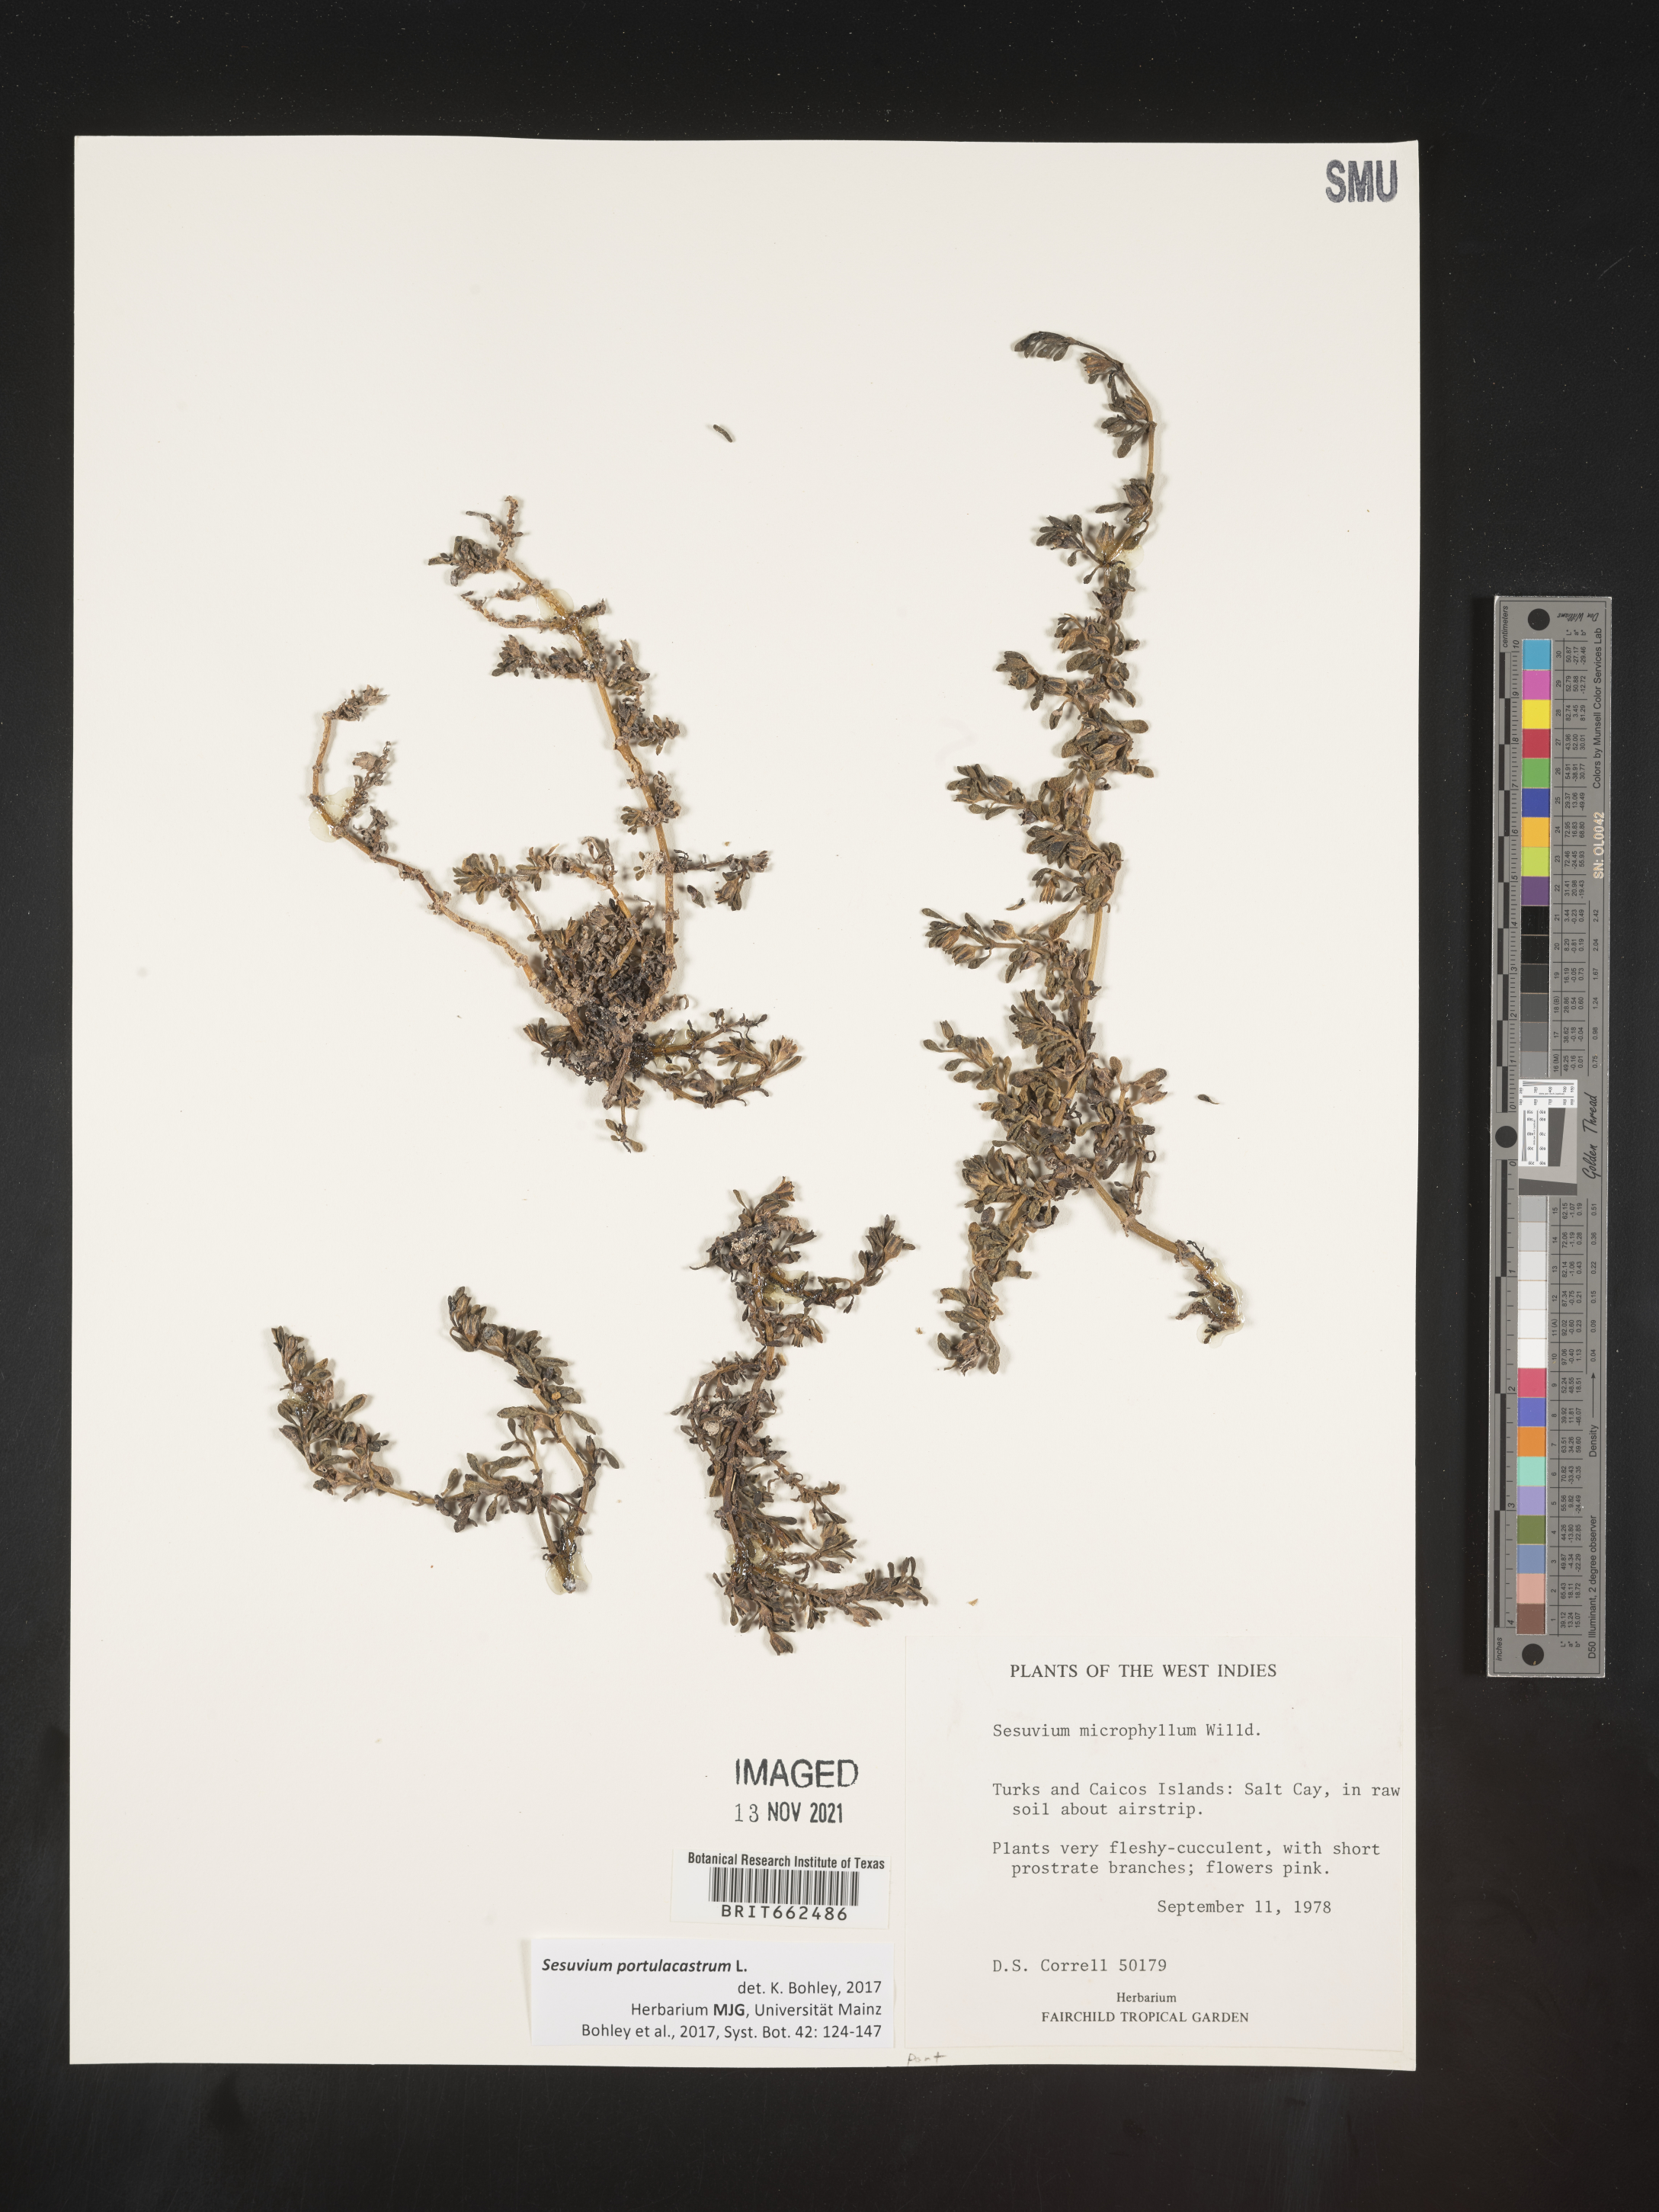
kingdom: Plantae
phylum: Tracheophyta
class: Magnoliopsida
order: Caryophyllales
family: Aizoaceae
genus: Sesuvium
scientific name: Sesuvium
